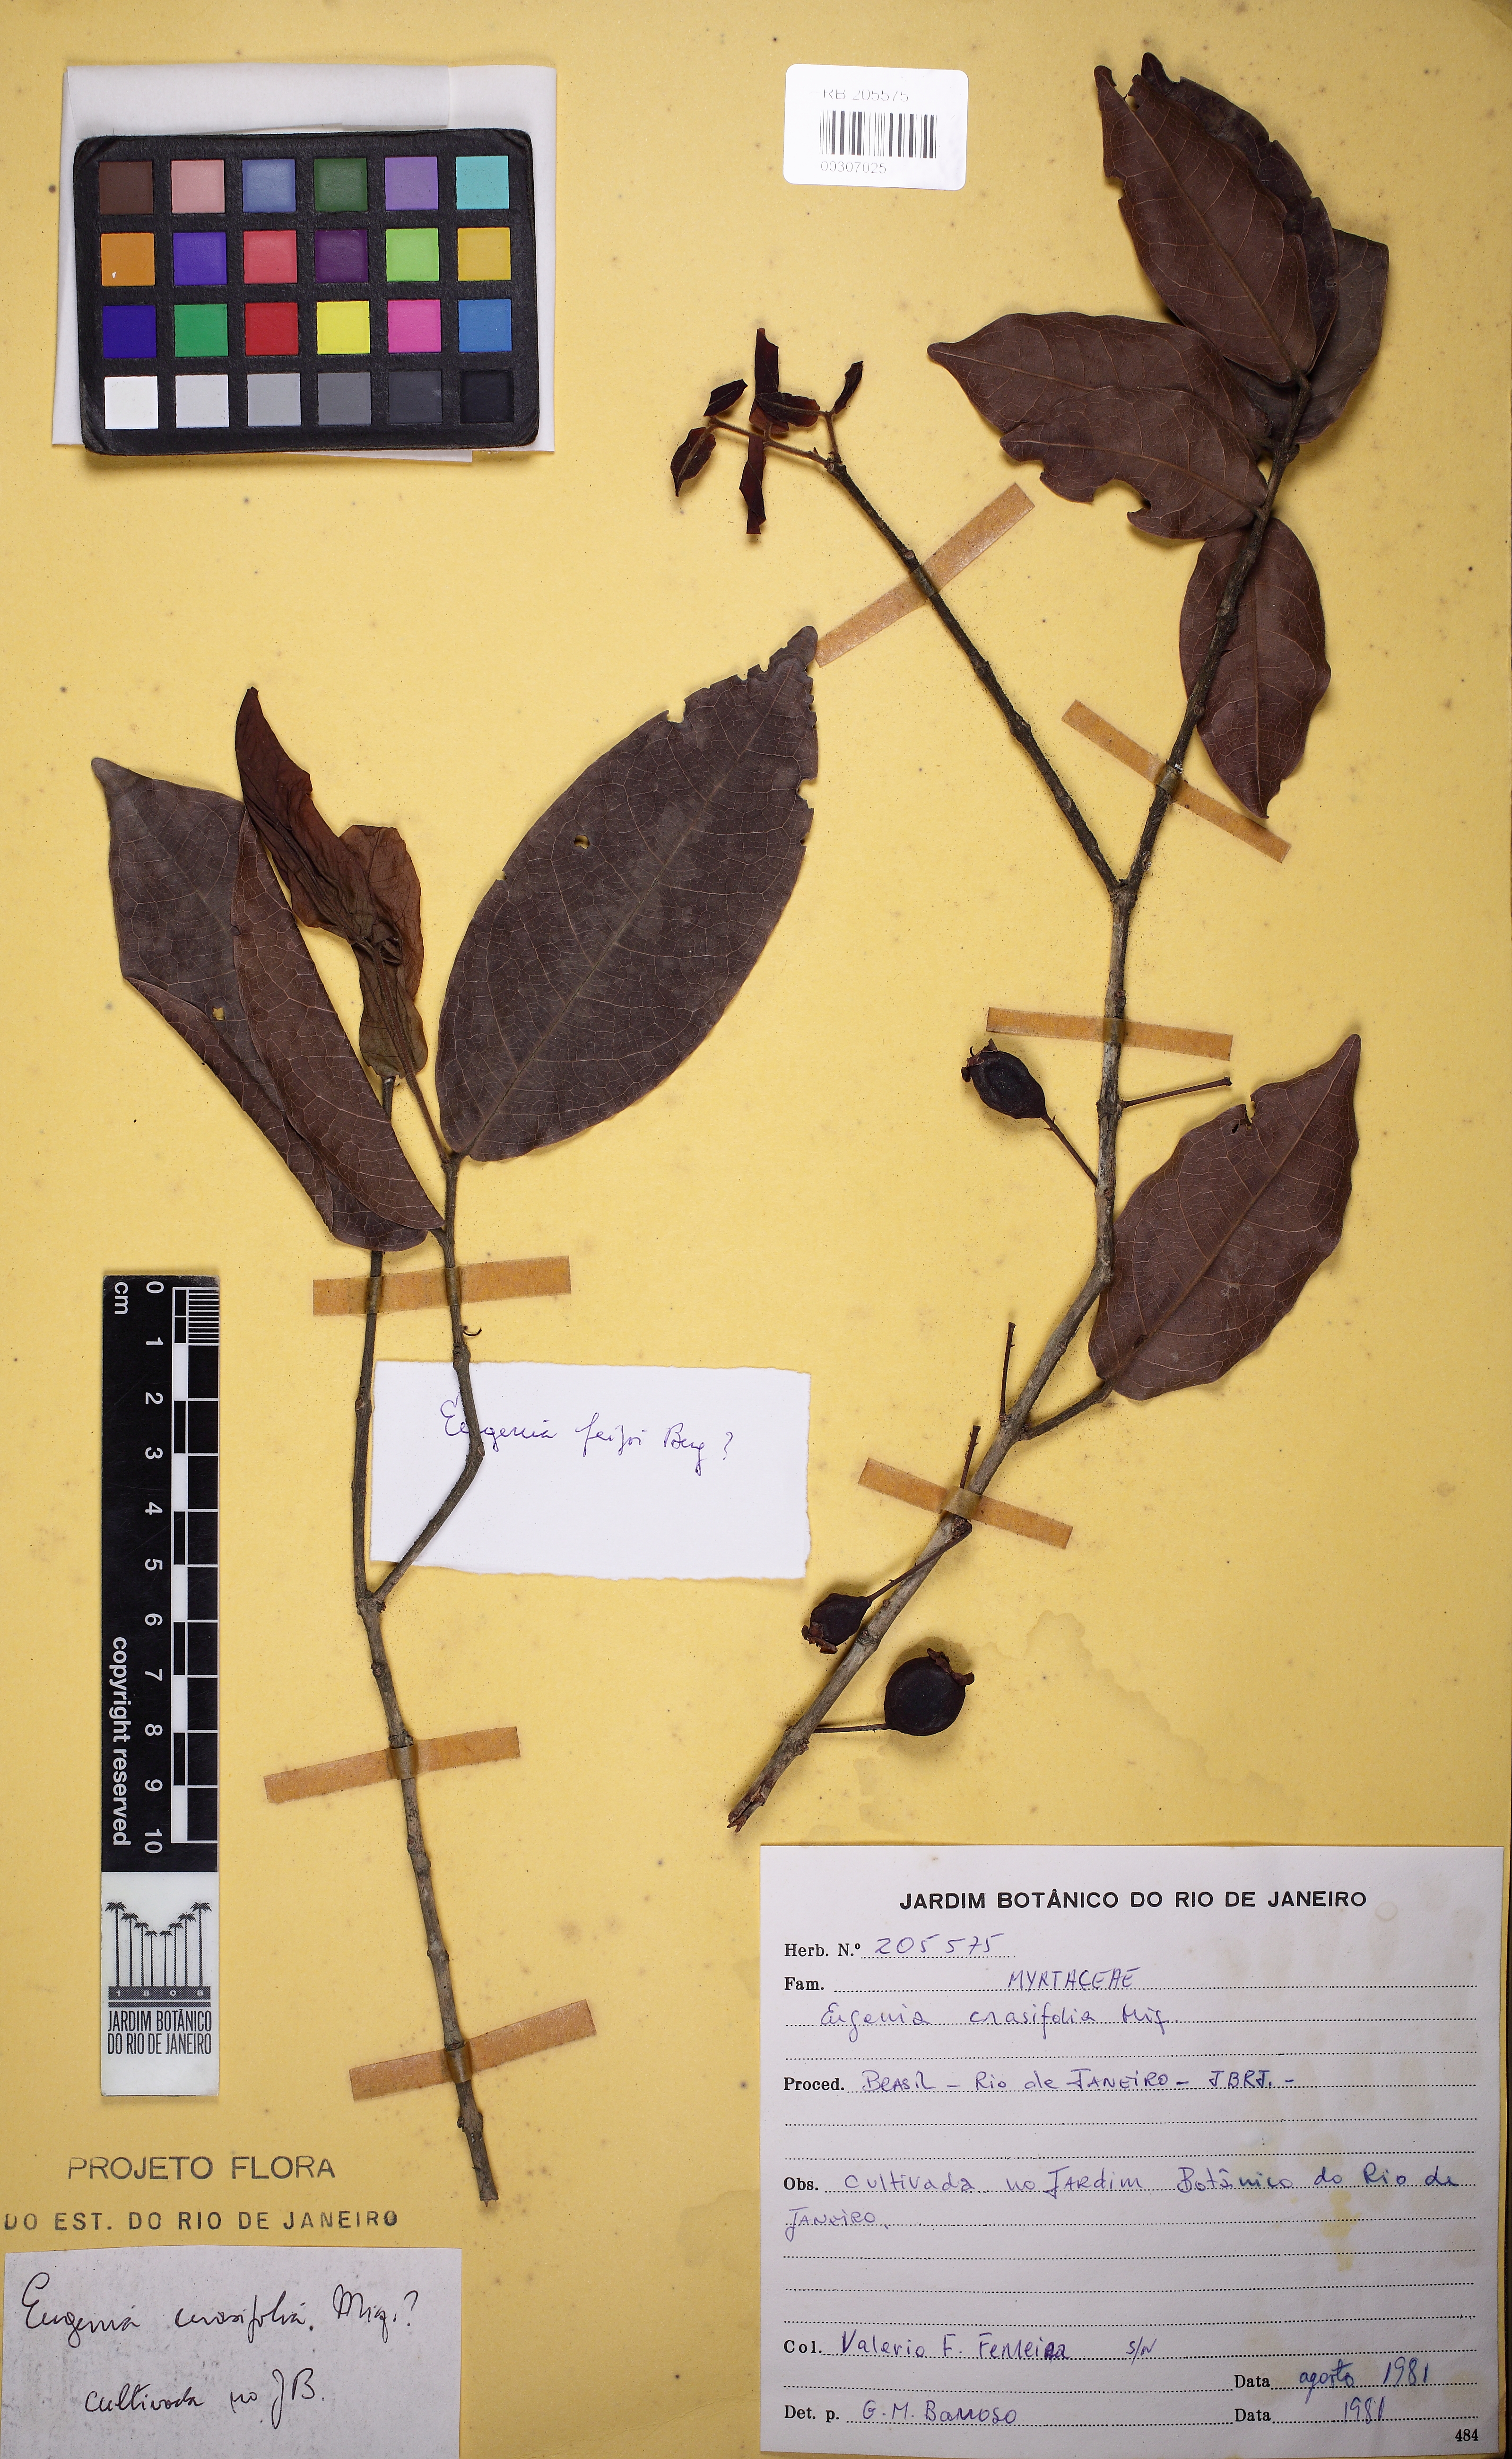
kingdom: Plantae
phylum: Tracheophyta
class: Magnoliopsida
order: Myrtales
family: Myrtaceae
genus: Eugenia
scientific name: Eugenia feijoi
